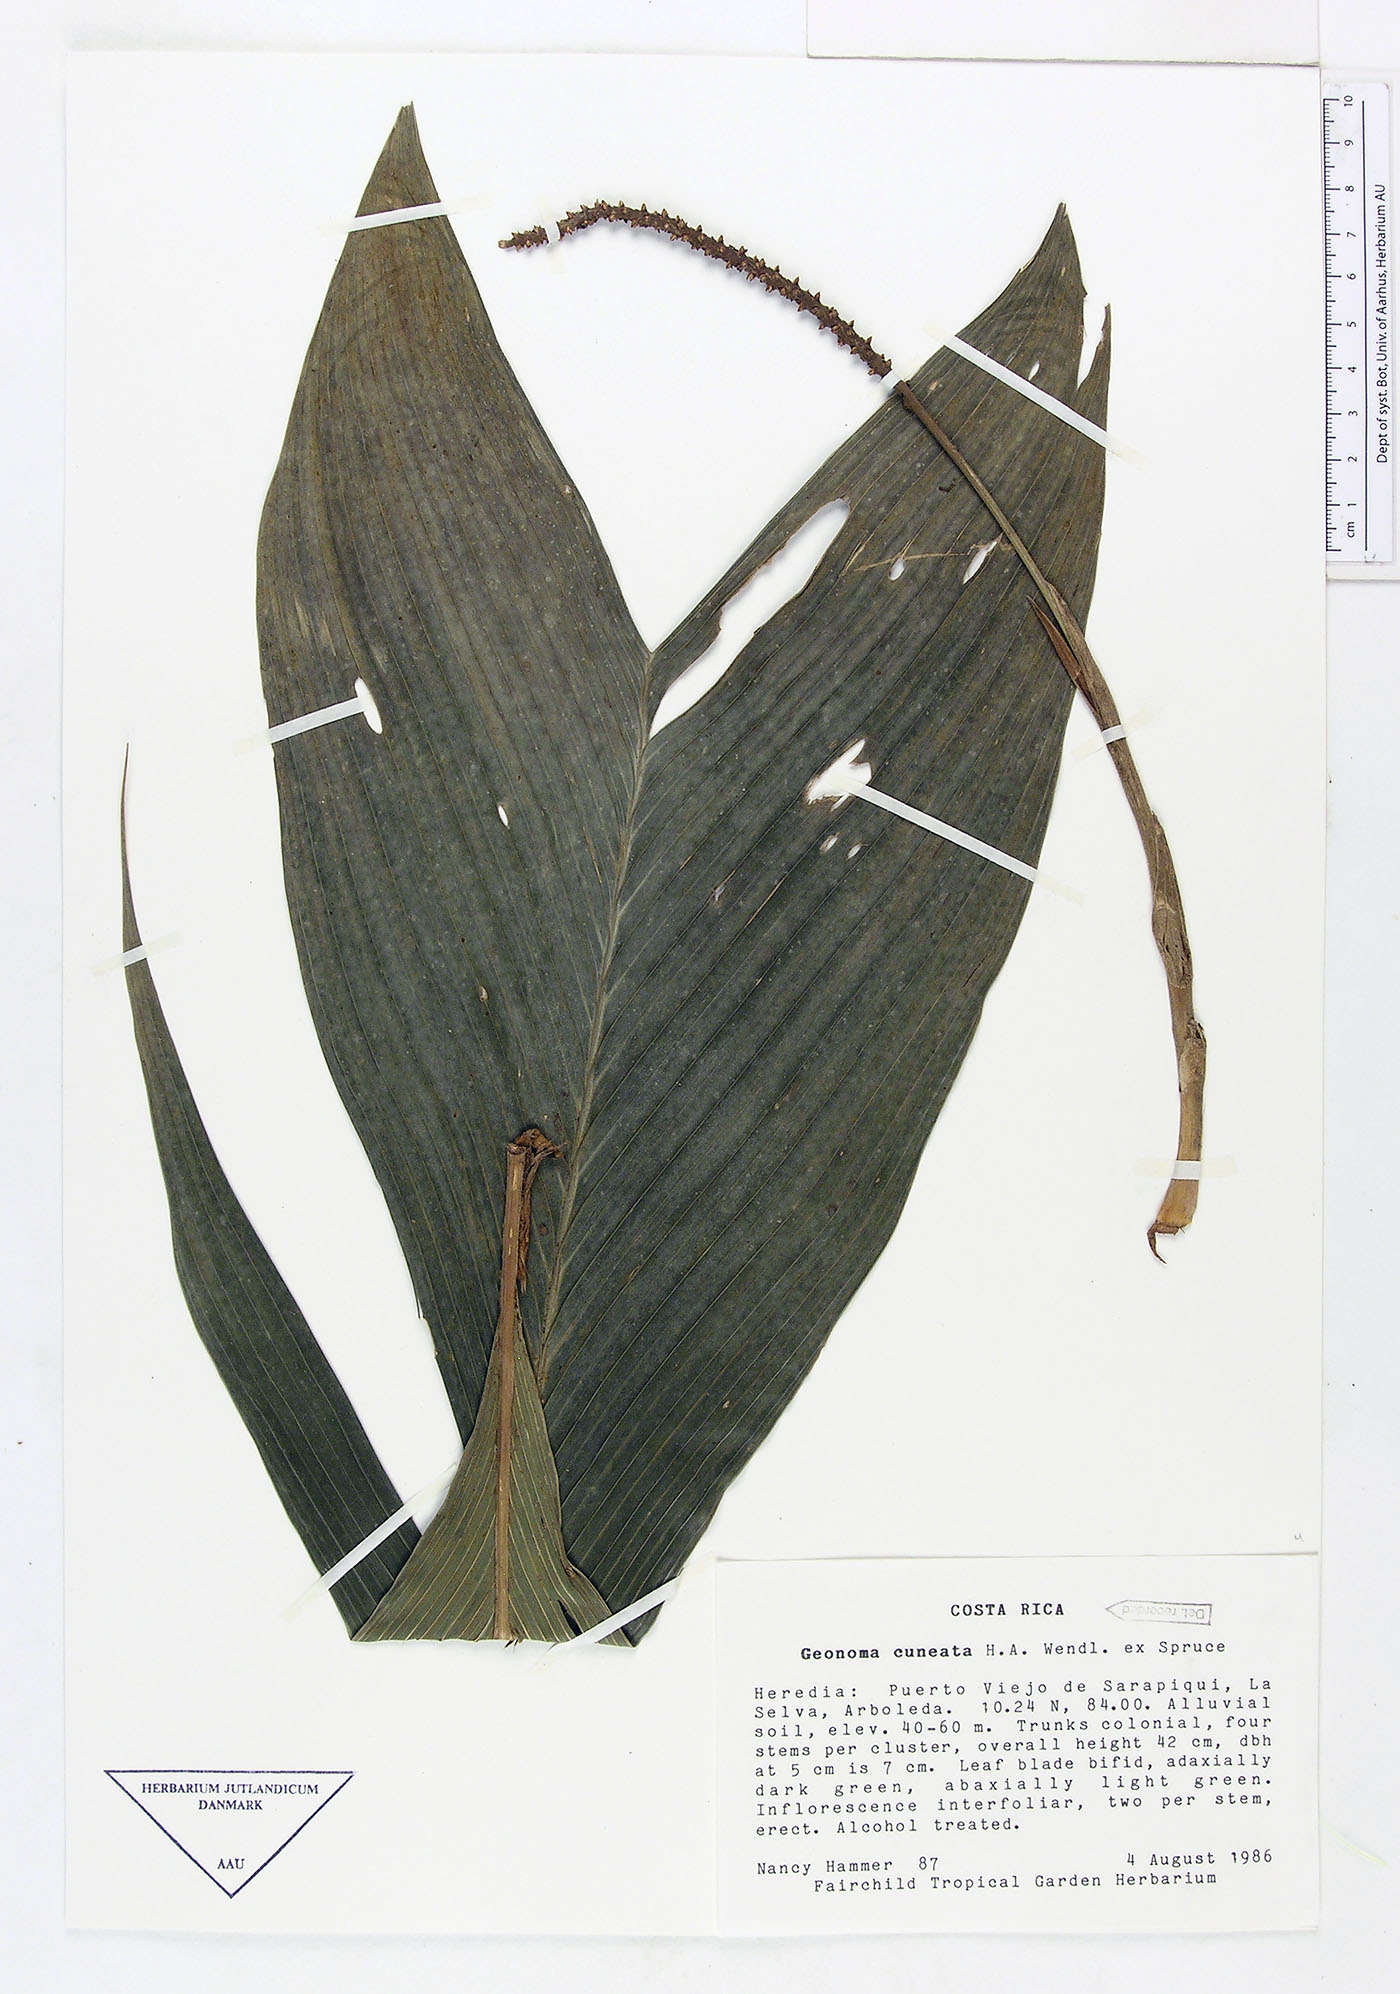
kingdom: Plantae
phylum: Tracheophyta
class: Liliopsida
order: Arecales
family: Arecaceae
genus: Geonoma
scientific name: Geonoma cuneata
